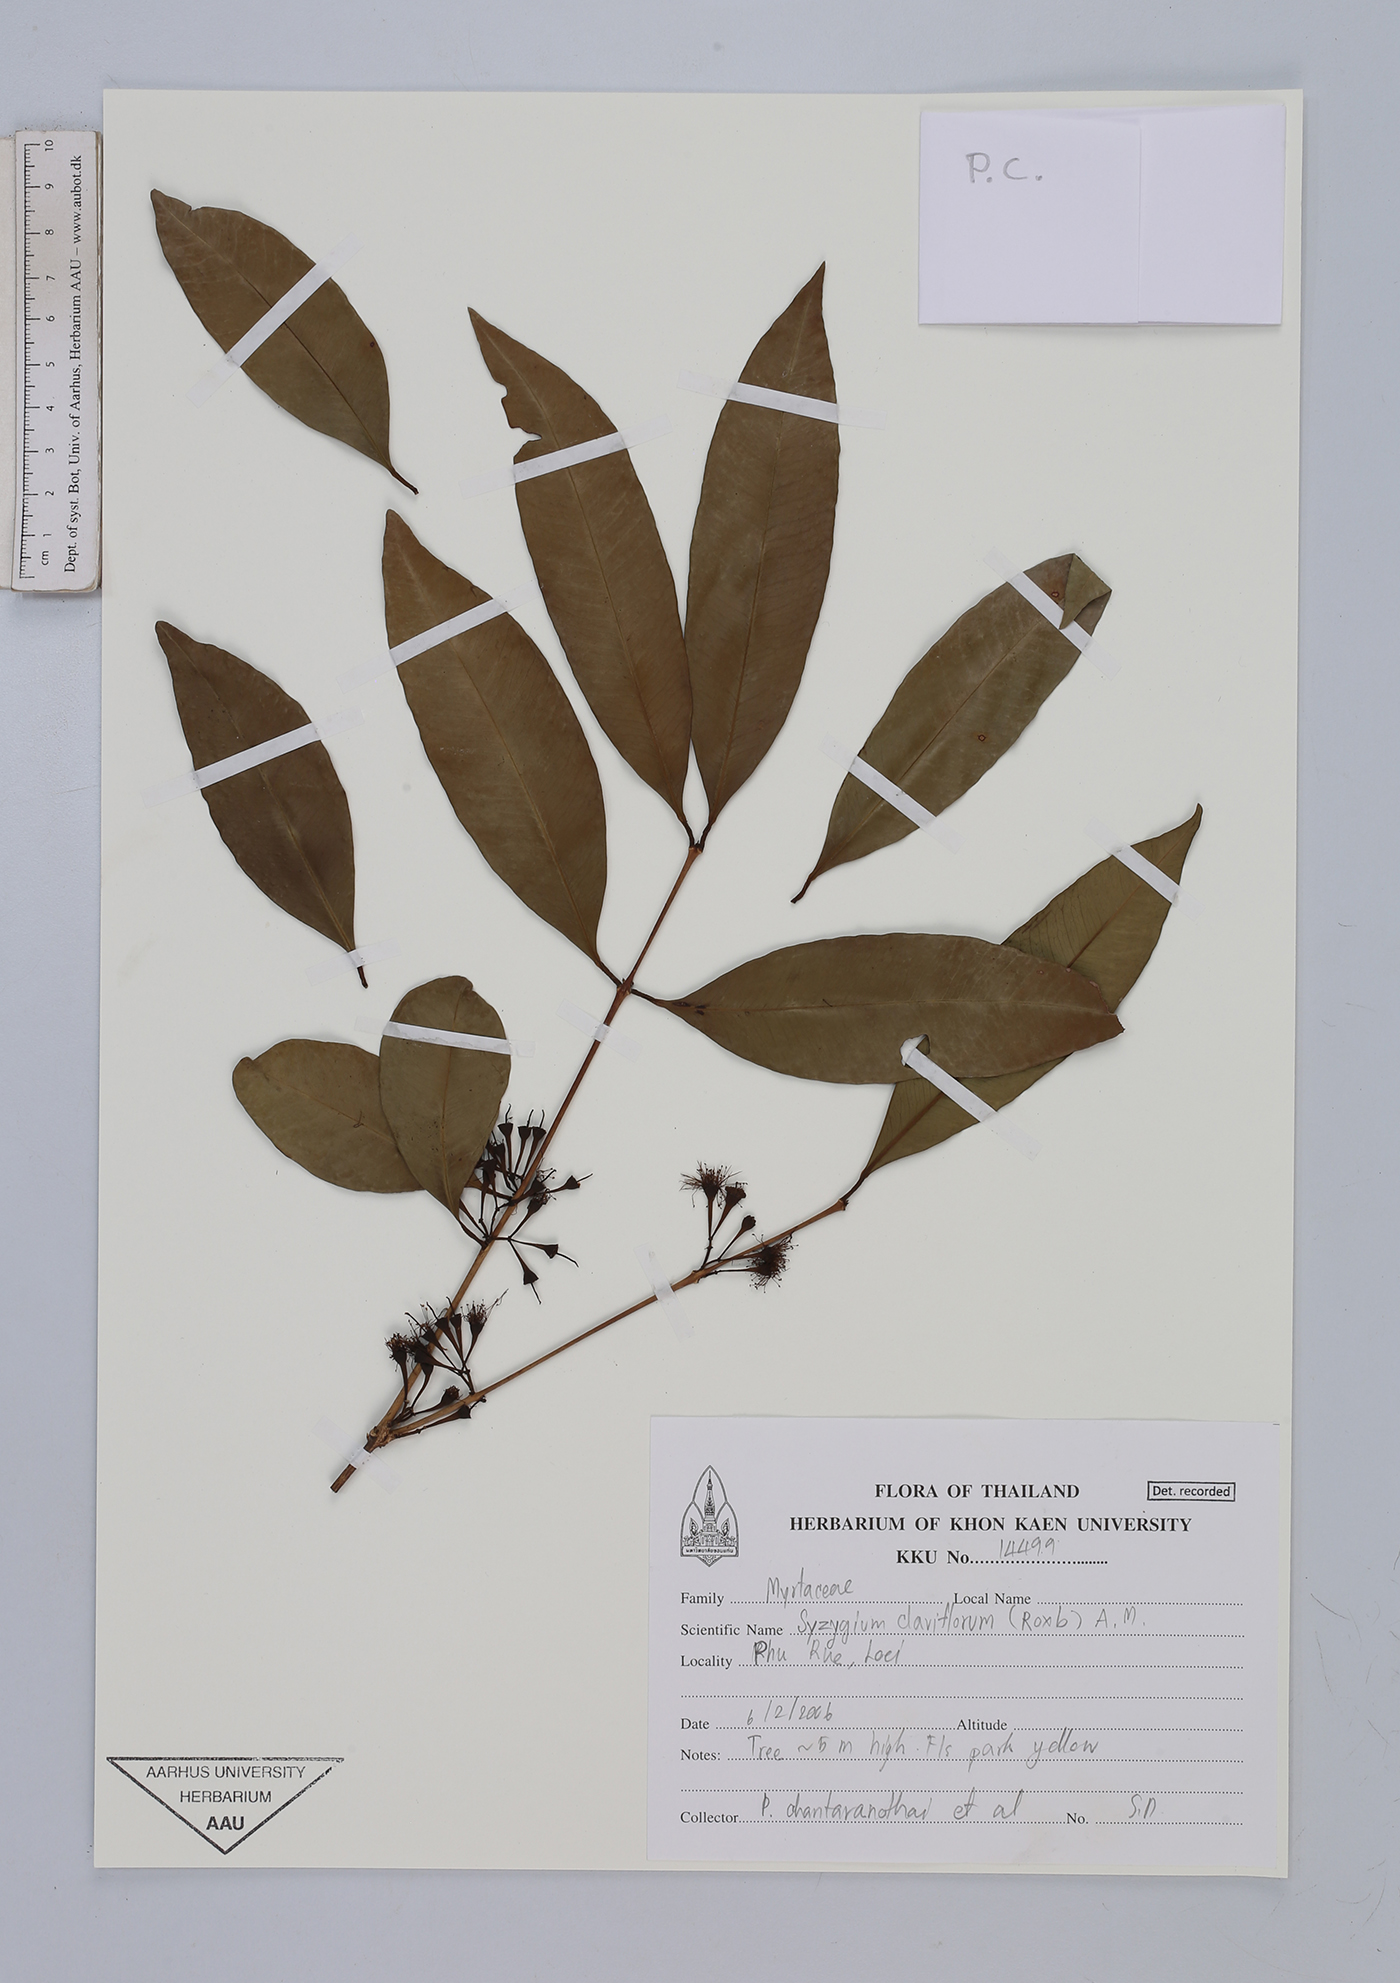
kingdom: Plantae
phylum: Tracheophyta
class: Magnoliopsida
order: Myrtales
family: Myrtaceae
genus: Syzygium
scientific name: Syzygium claviflorum
